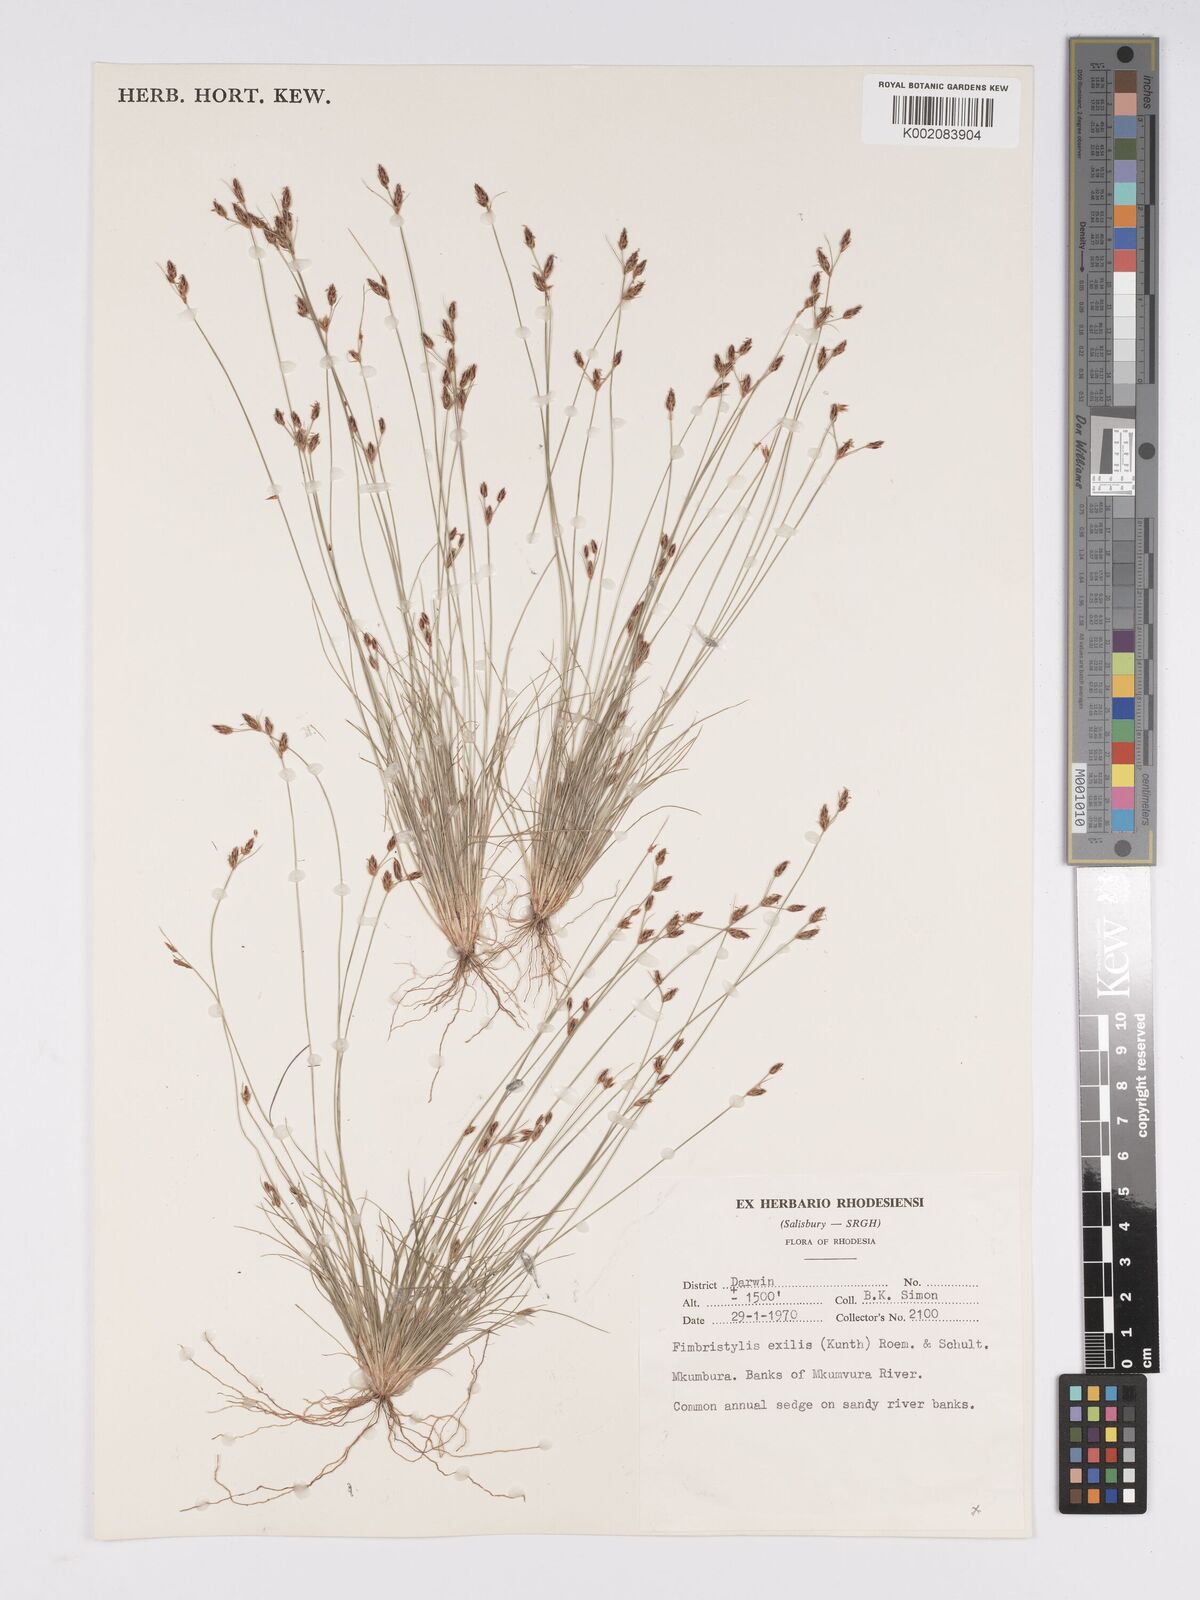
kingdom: Plantae
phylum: Tracheophyta
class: Liliopsida
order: Poales
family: Cyperaceae
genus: Bulbostylis
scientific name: Bulbostylis hispidula
